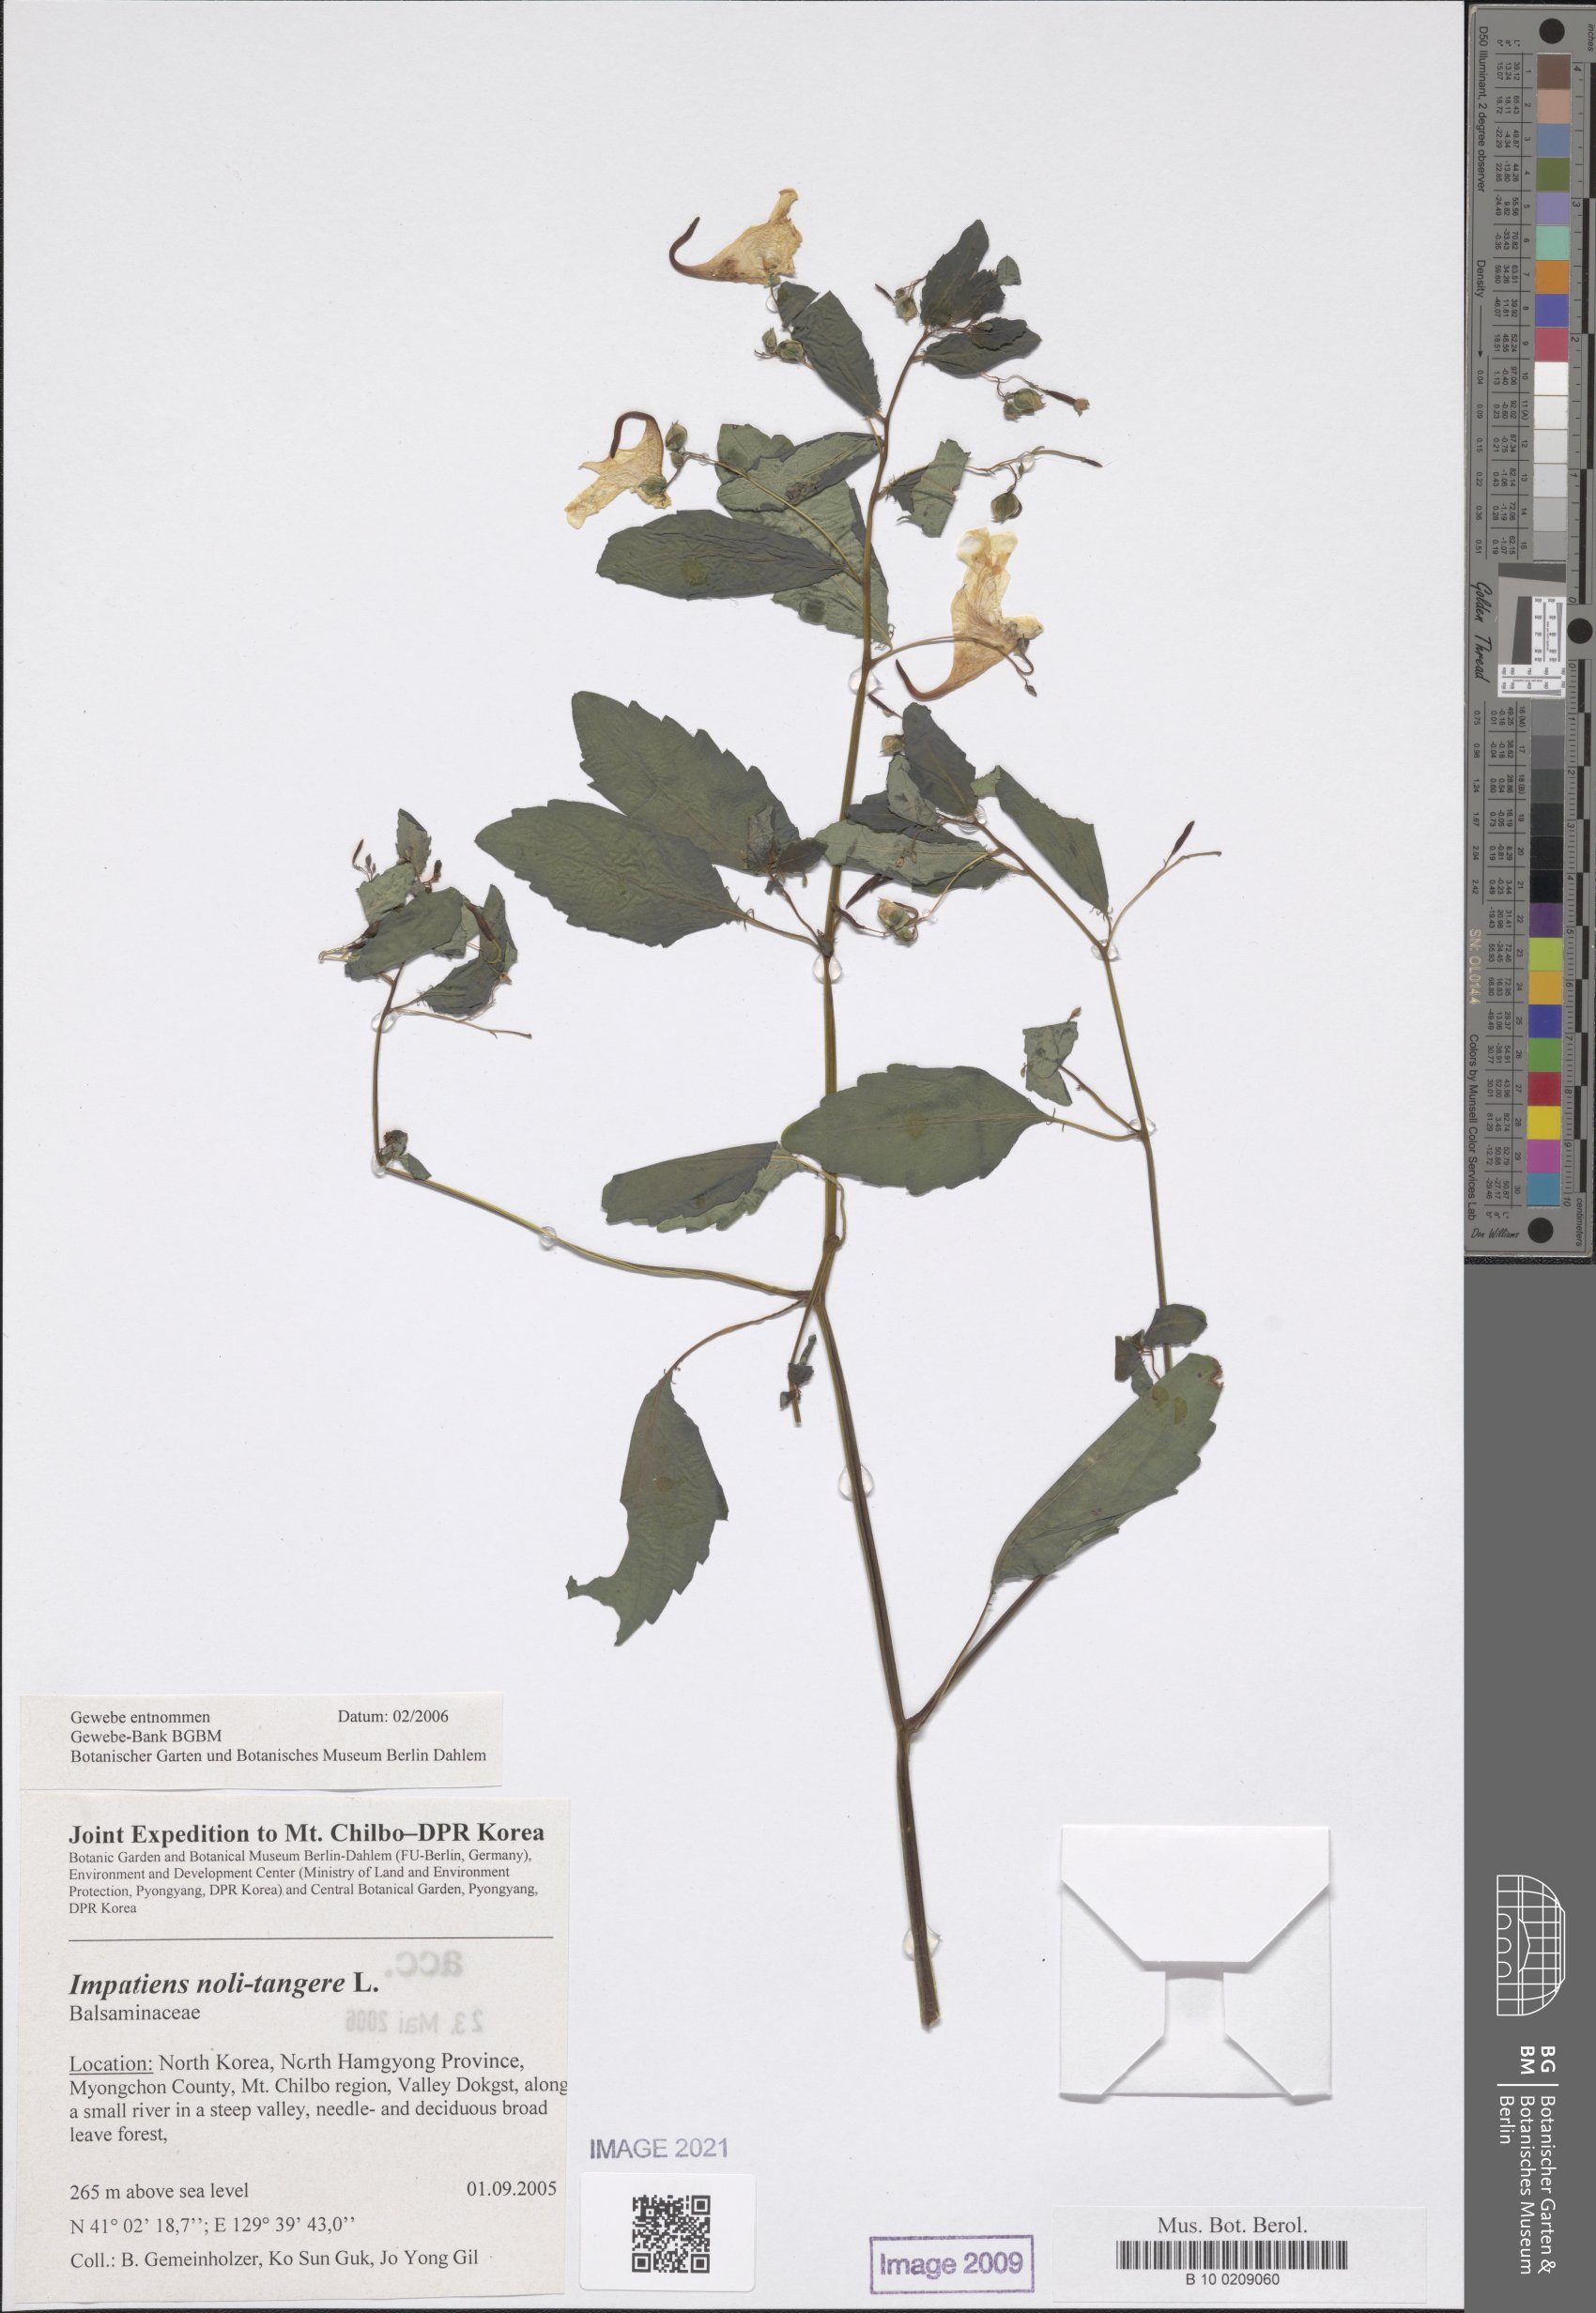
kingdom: Plantae
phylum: Tracheophyta
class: Magnoliopsida
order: Ericales
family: Balsaminaceae
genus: Impatiens
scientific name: Impatiens noli-tangere
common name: Touch-me-not balsam
